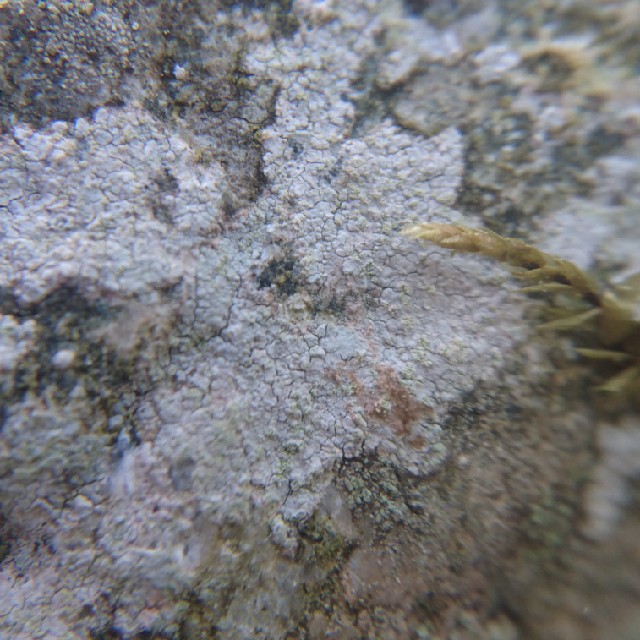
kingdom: Fungi
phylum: Ascomycota
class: Lecanoromycetes
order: Baeomycetales
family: Trapeliaceae
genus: Kleopowiella
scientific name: Kleopowiella placodioides
